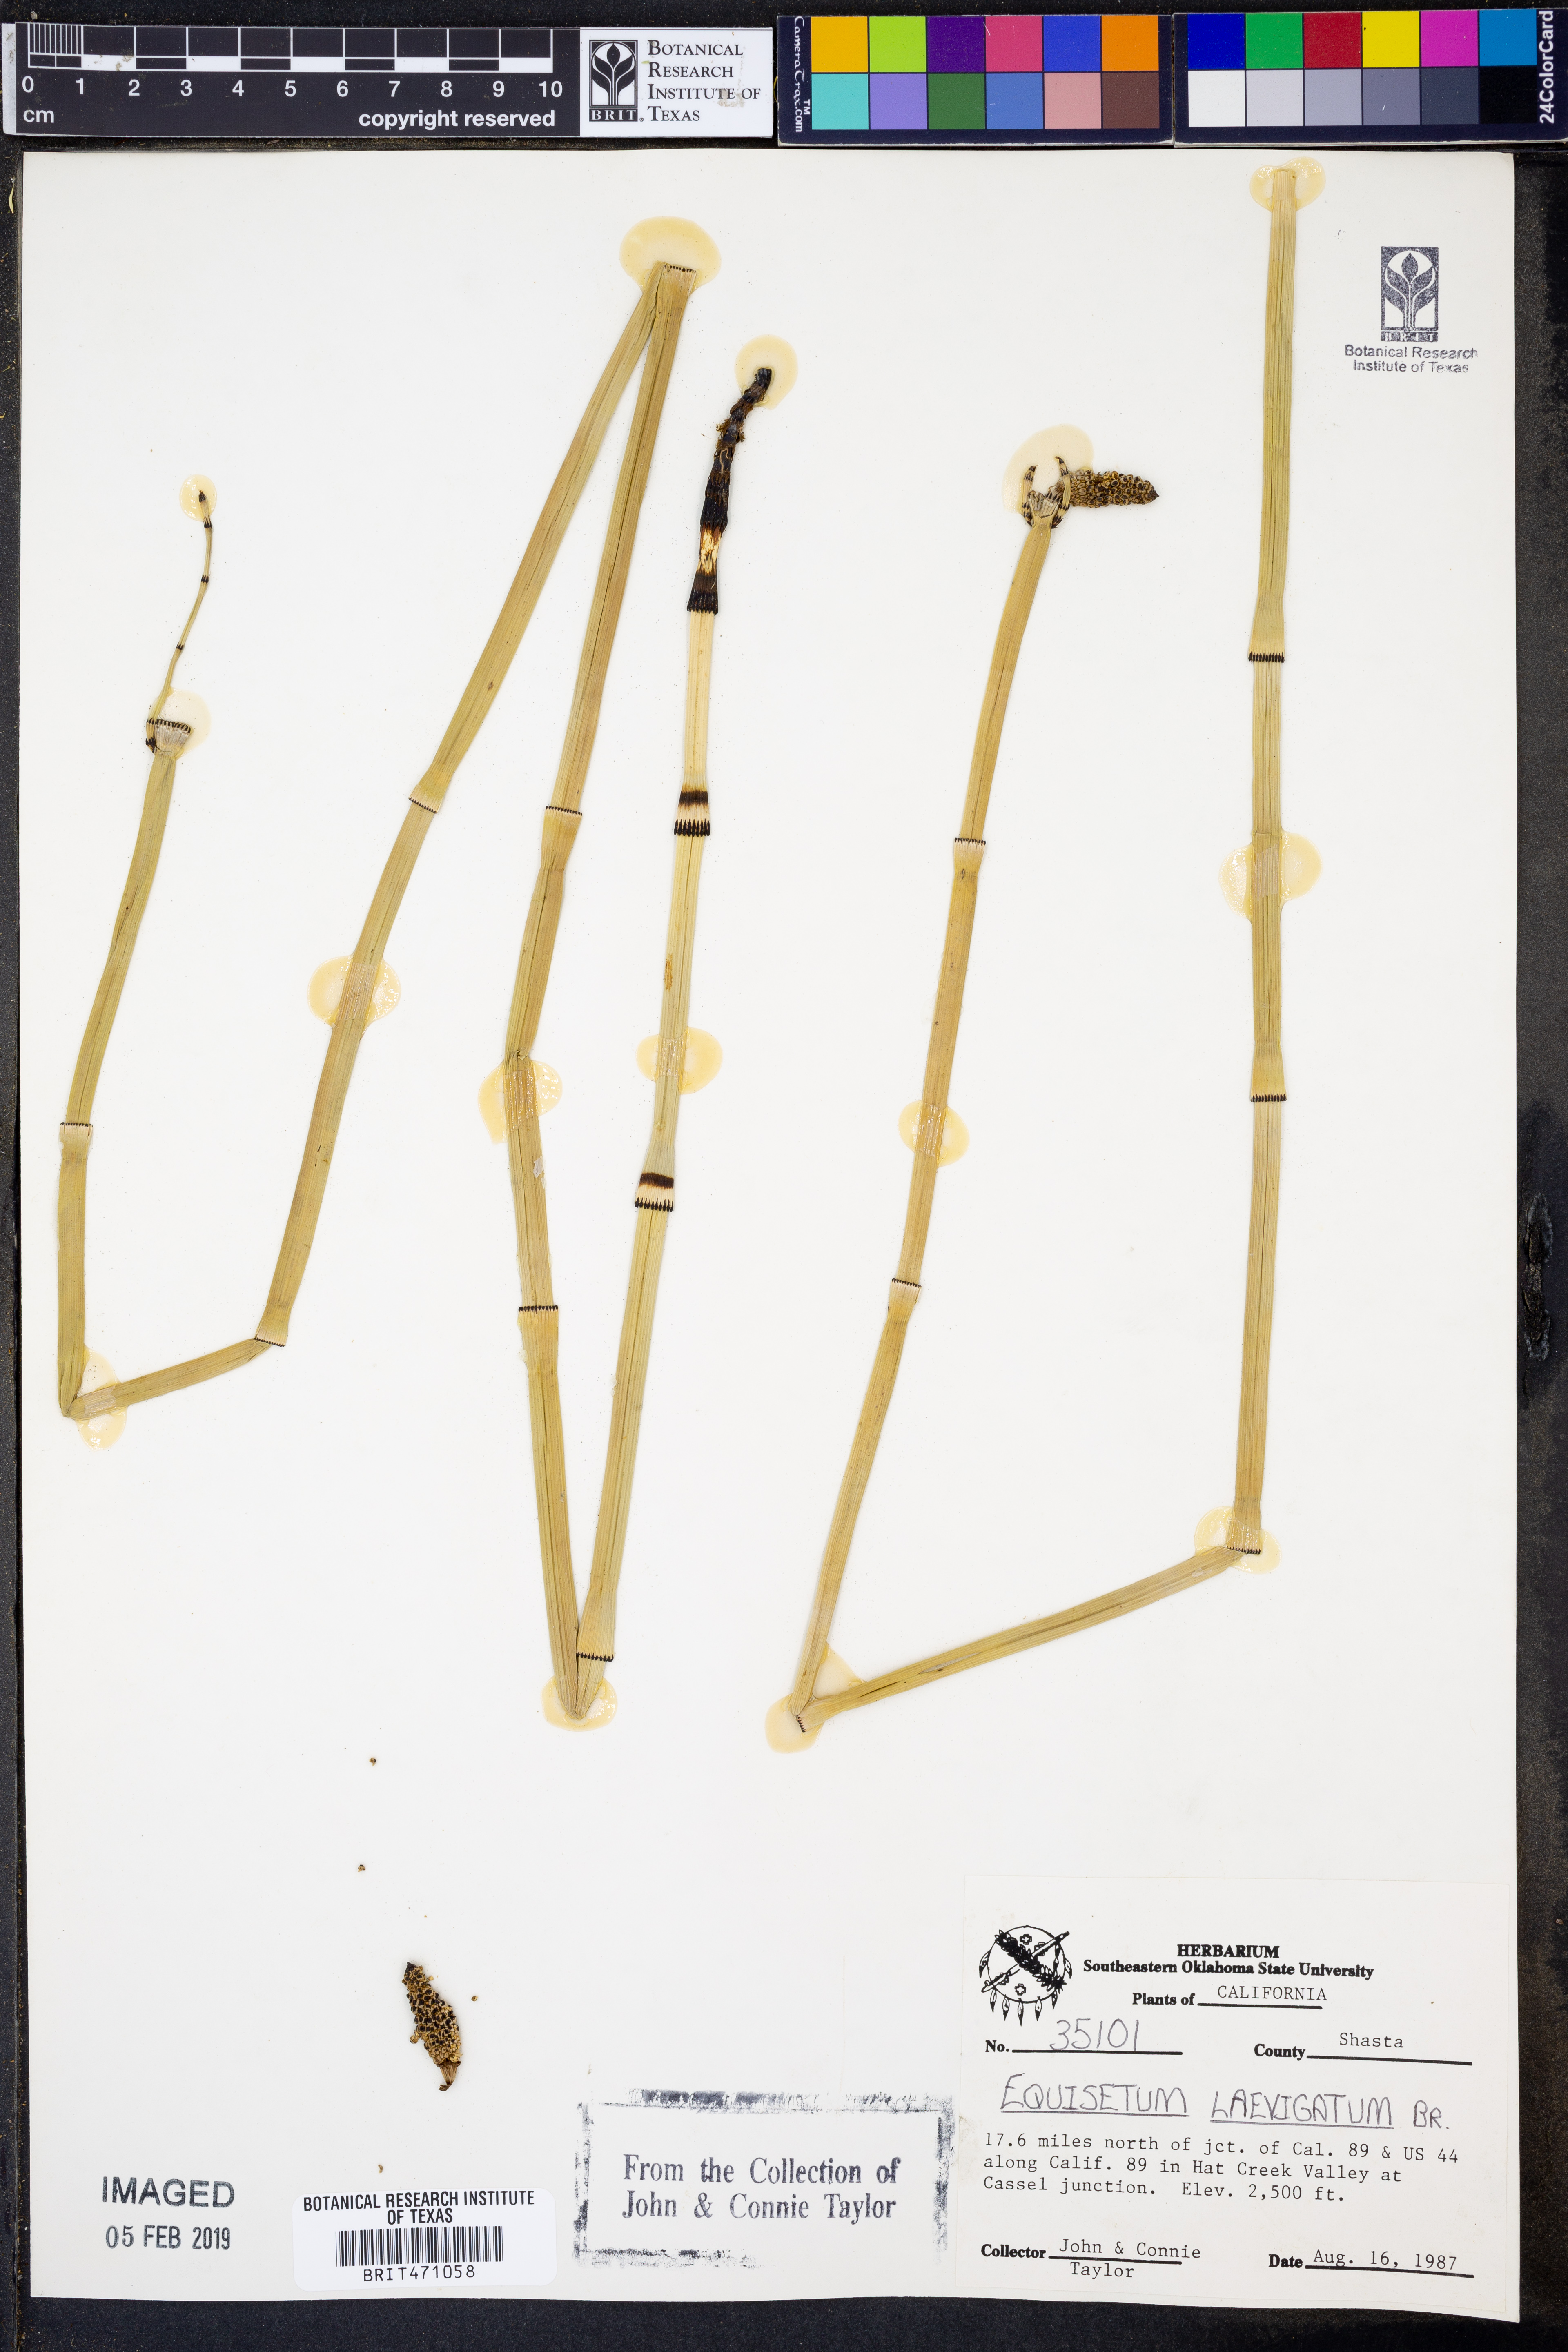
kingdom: Plantae
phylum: Tracheophyta
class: Polypodiopsida
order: Equisetales
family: Equisetaceae
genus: Equisetum
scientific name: Equisetum laevigatum
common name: Smooth scouring-rush
